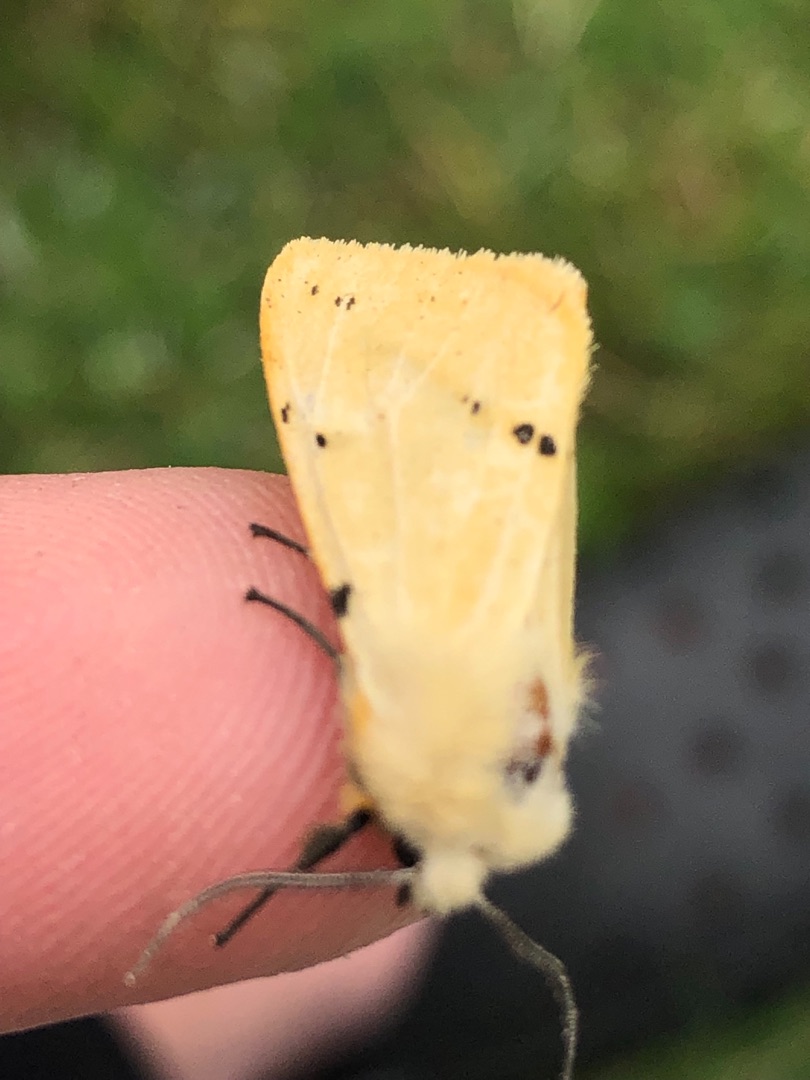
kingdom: Animalia
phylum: Arthropoda
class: Insecta
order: Lepidoptera
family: Erebidae
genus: Spilarctia
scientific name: Spilarctia lutea
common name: Gul tigerspinder
